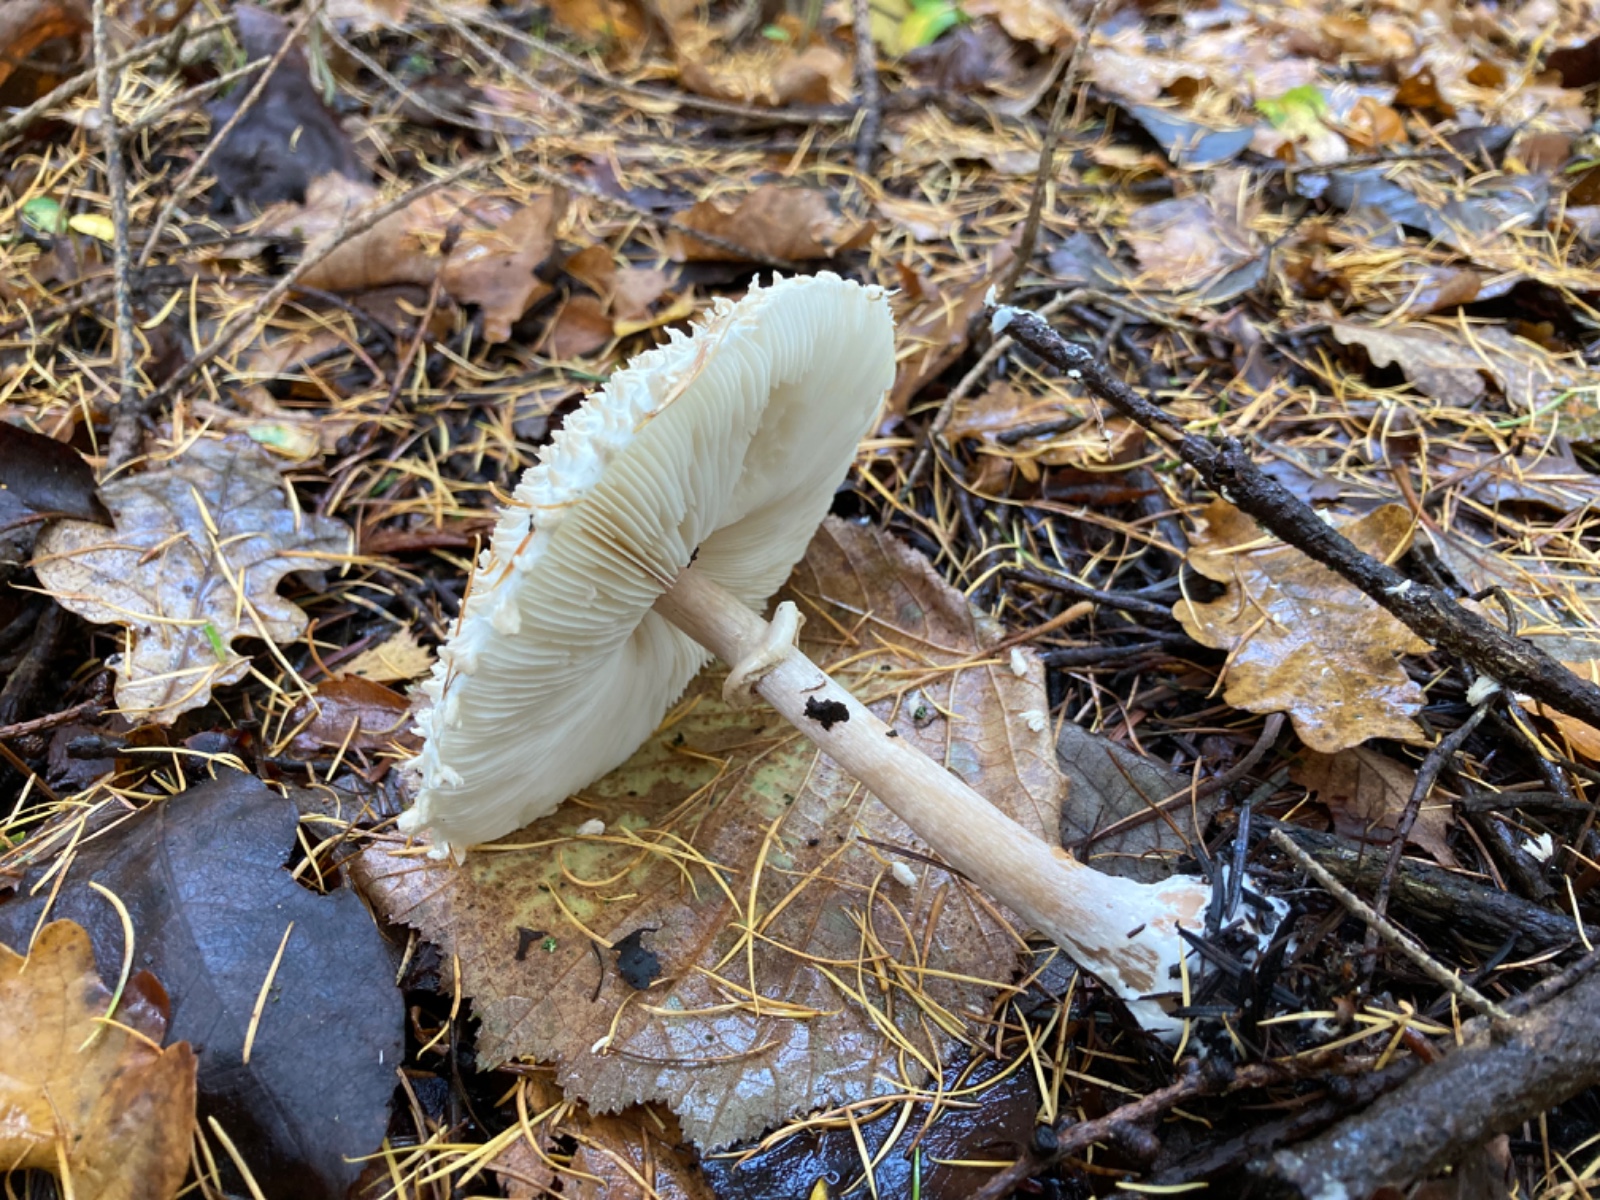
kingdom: Fungi
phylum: Basidiomycota
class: Agaricomycetes
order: Agaricales
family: Agaricaceae
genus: Leucoagaricus
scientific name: Leucoagaricus nympharum
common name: gran-silkehat
